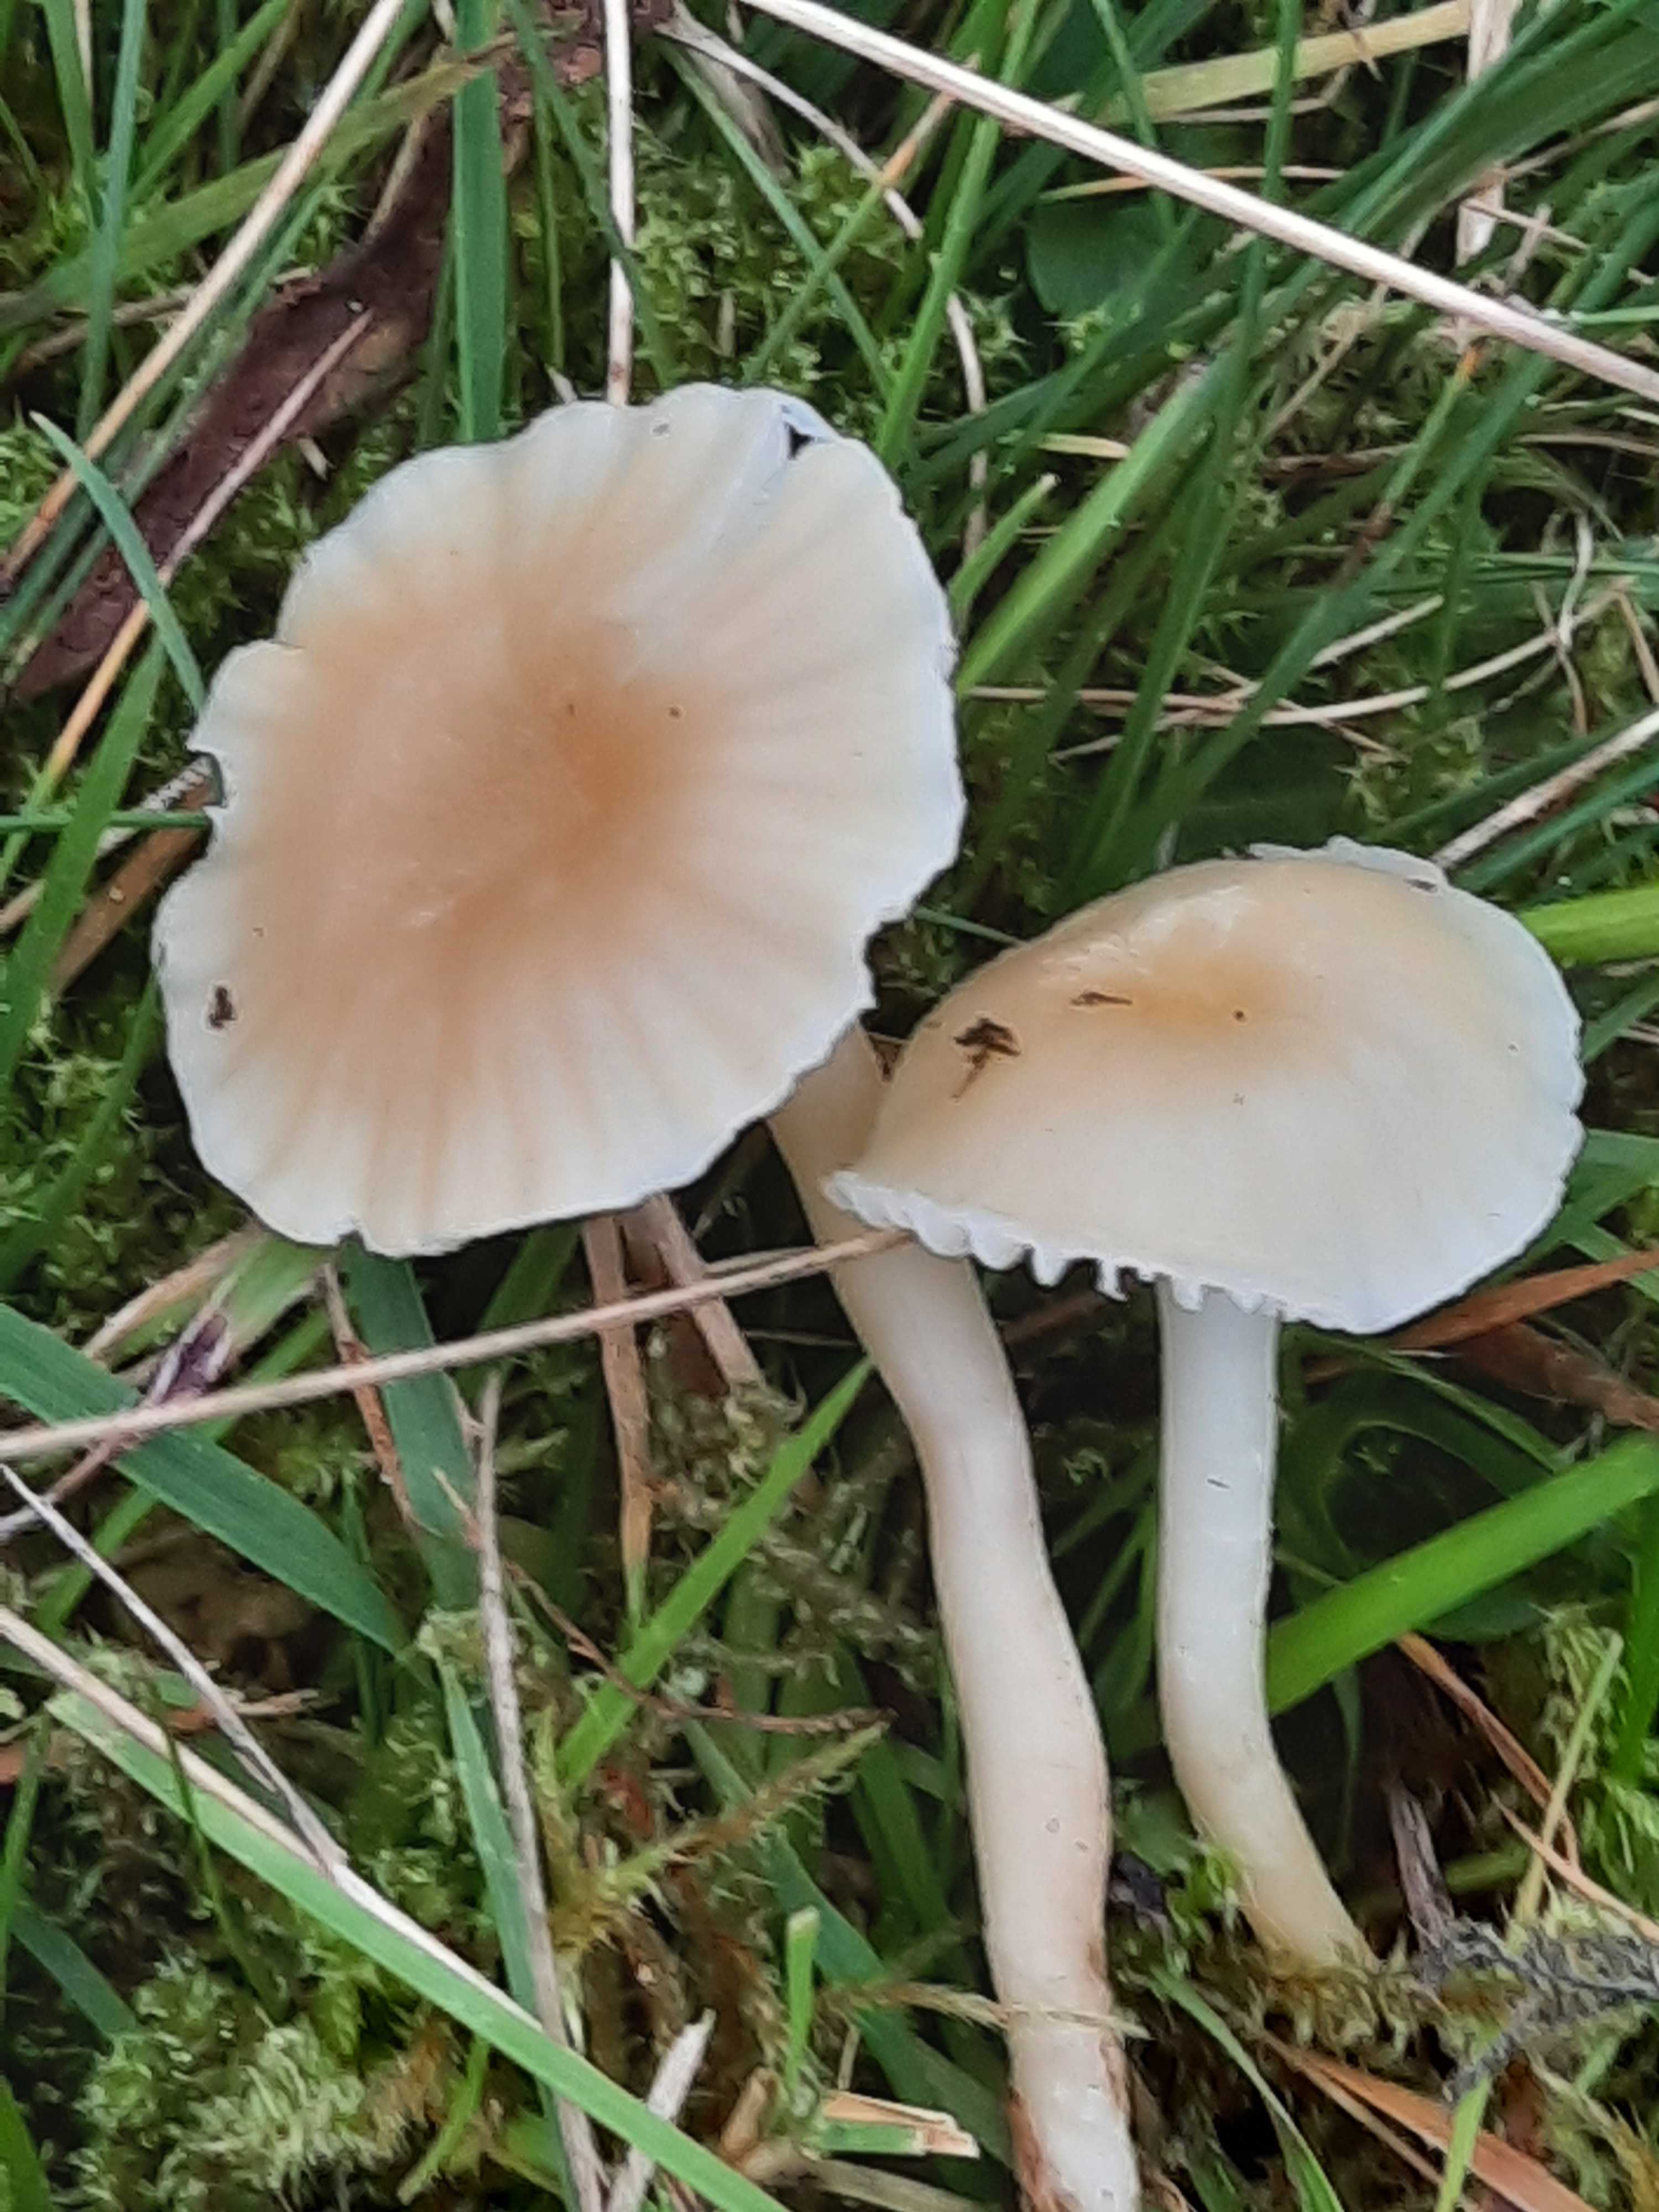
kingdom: Fungi
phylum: Basidiomycota
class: Agaricomycetes
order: Agaricales
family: Hygrophoraceae
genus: Cuphophyllus
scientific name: Cuphophyllus russocoriaceus
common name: ruslæder-vokshat
